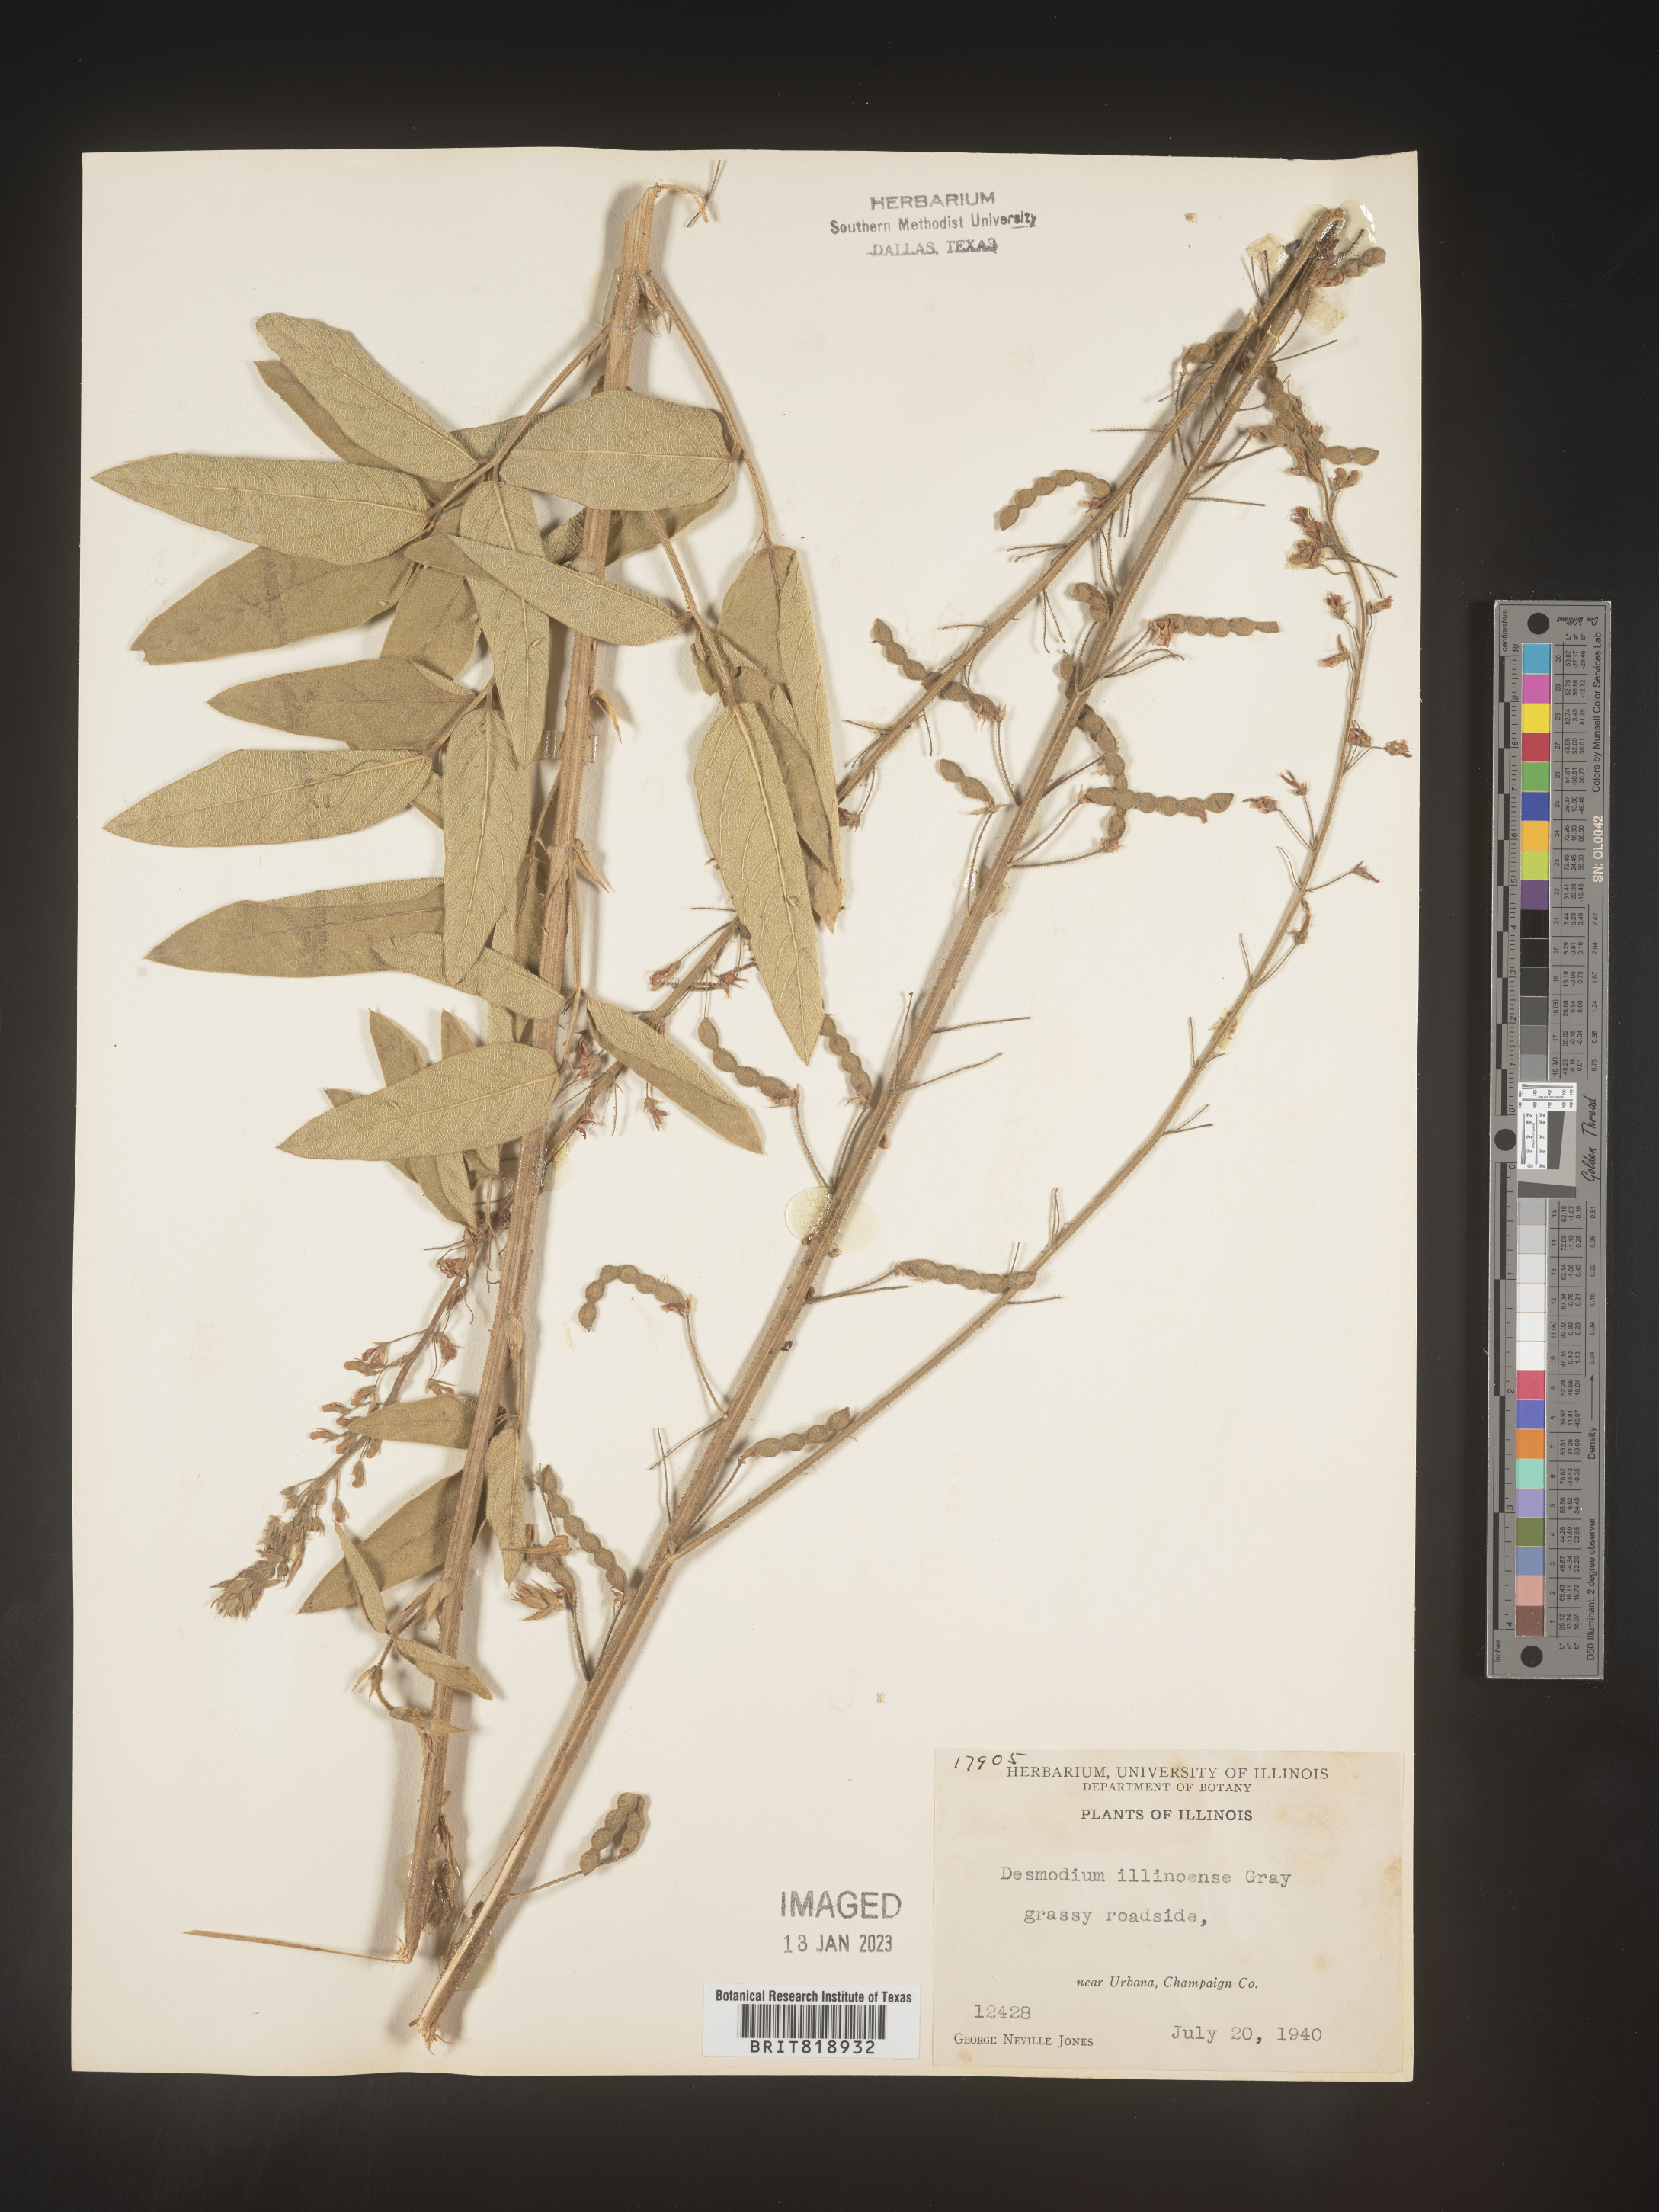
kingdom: Plantae
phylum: Tracheophyta
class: Magnoliopsida
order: Fabales
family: Fabaceae
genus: Desmodium
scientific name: Desmodium illinoense
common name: Illinois tick-clover
